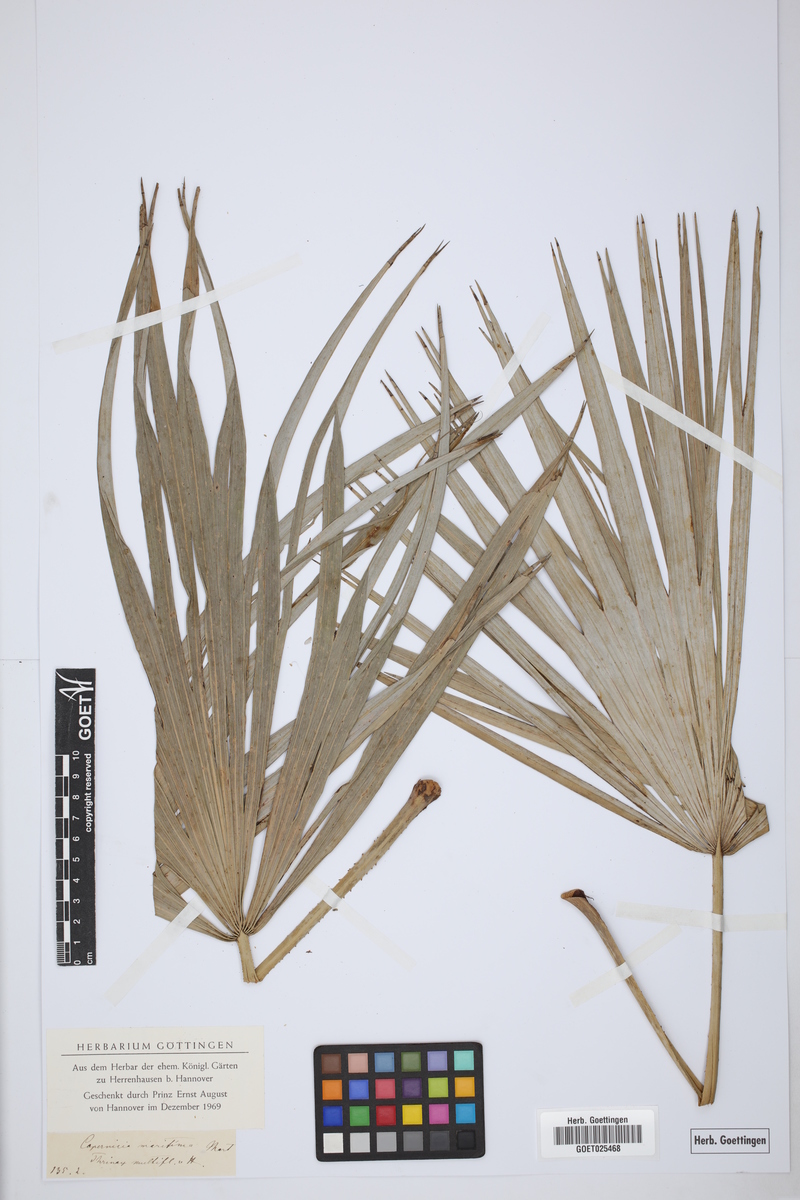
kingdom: Plantae
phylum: Tracheophyta
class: Liliopsida
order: Arecales
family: Arecaceae
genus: Sabal
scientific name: Sabal maritima
